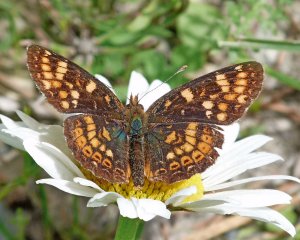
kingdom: Animalia
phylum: Arthropoda
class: Insecta
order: Lepidoptera
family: Nymphalidae
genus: Phyciodes
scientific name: Phyciodes tharos
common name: Field Crescent
